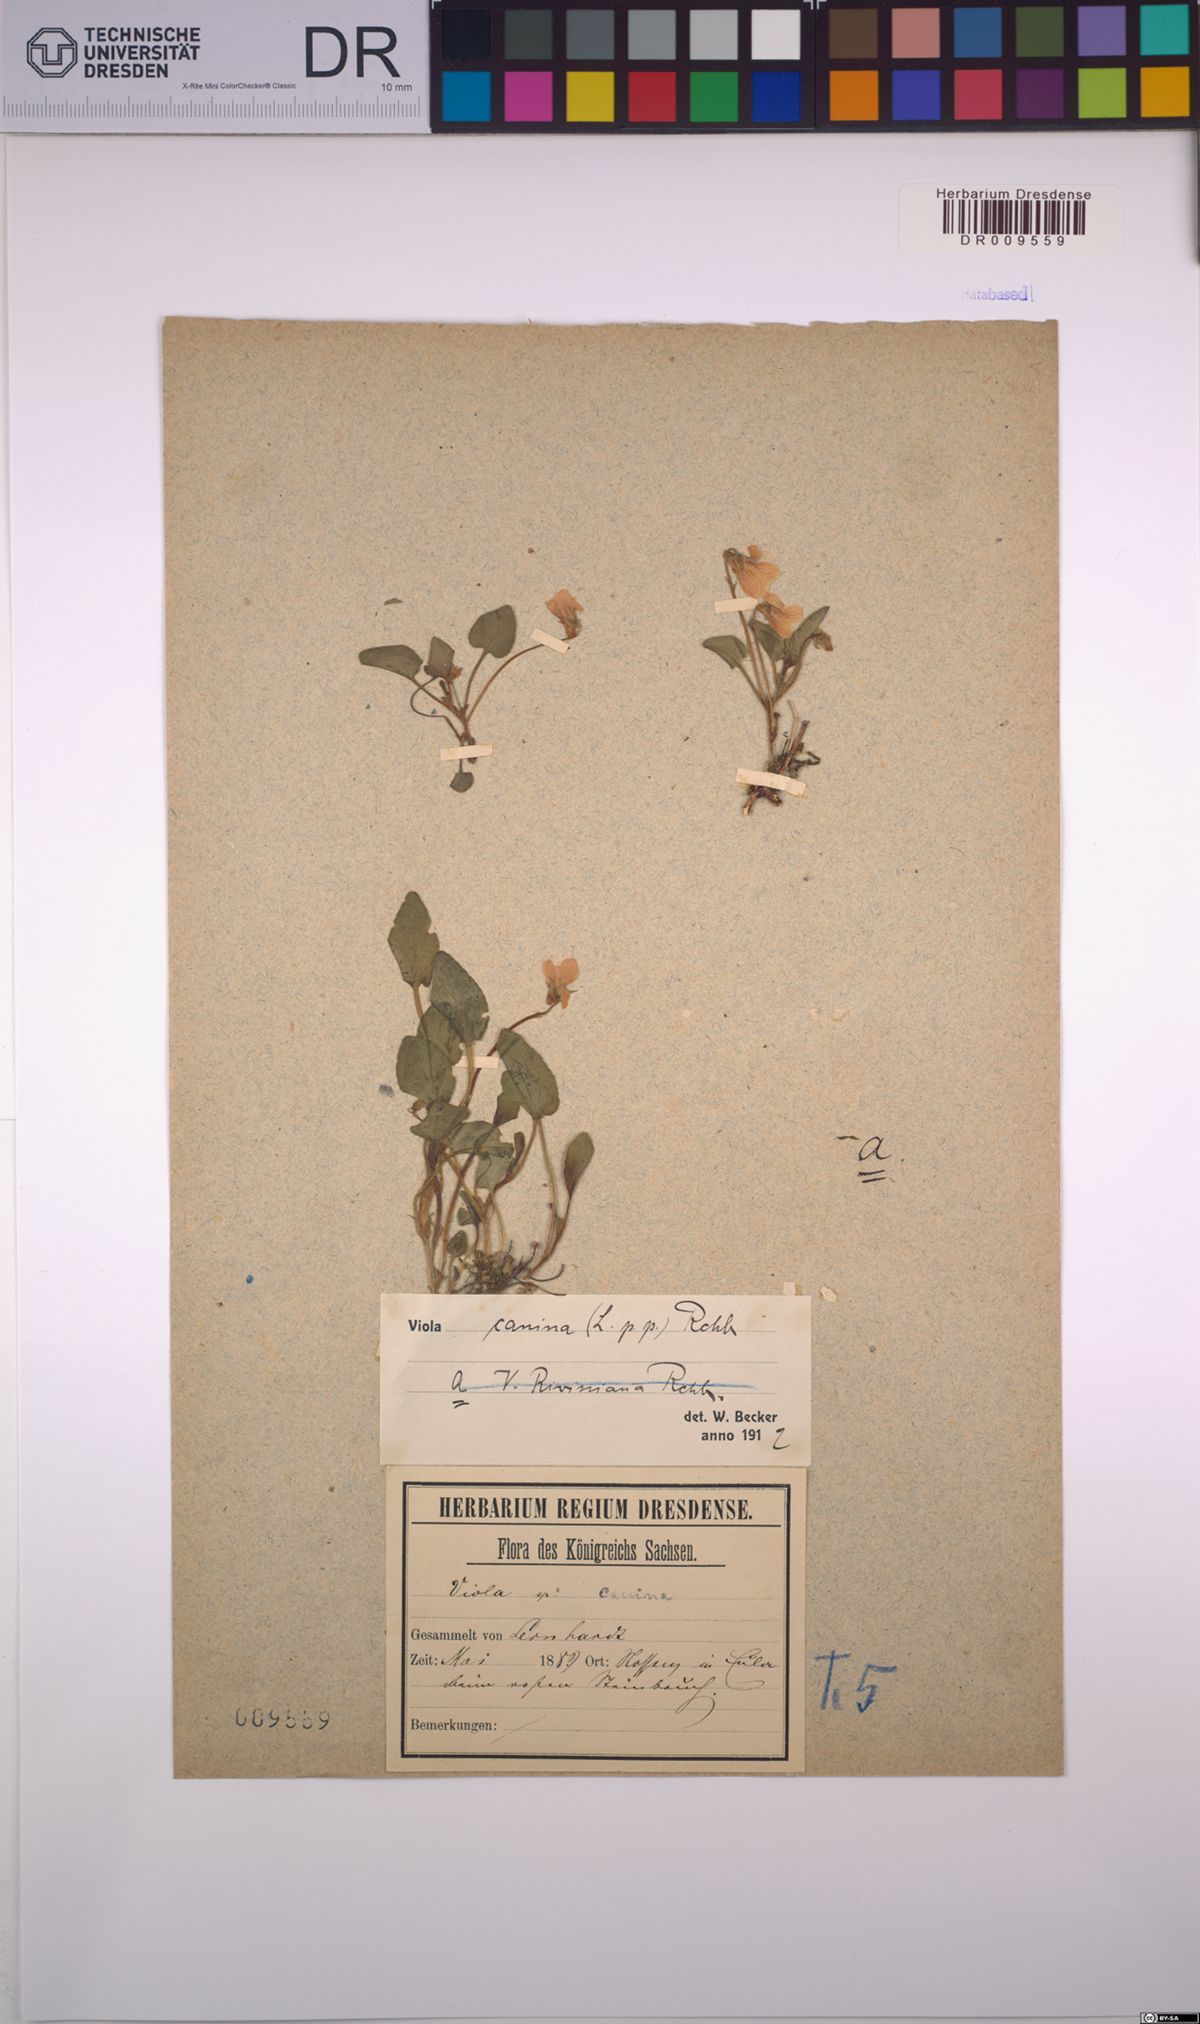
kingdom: Plantae
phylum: Tracheophyta
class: Magnoliopsida
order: Malpighiales
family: Violaceae
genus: Viola
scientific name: Viola canina
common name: Heath dog-violet
